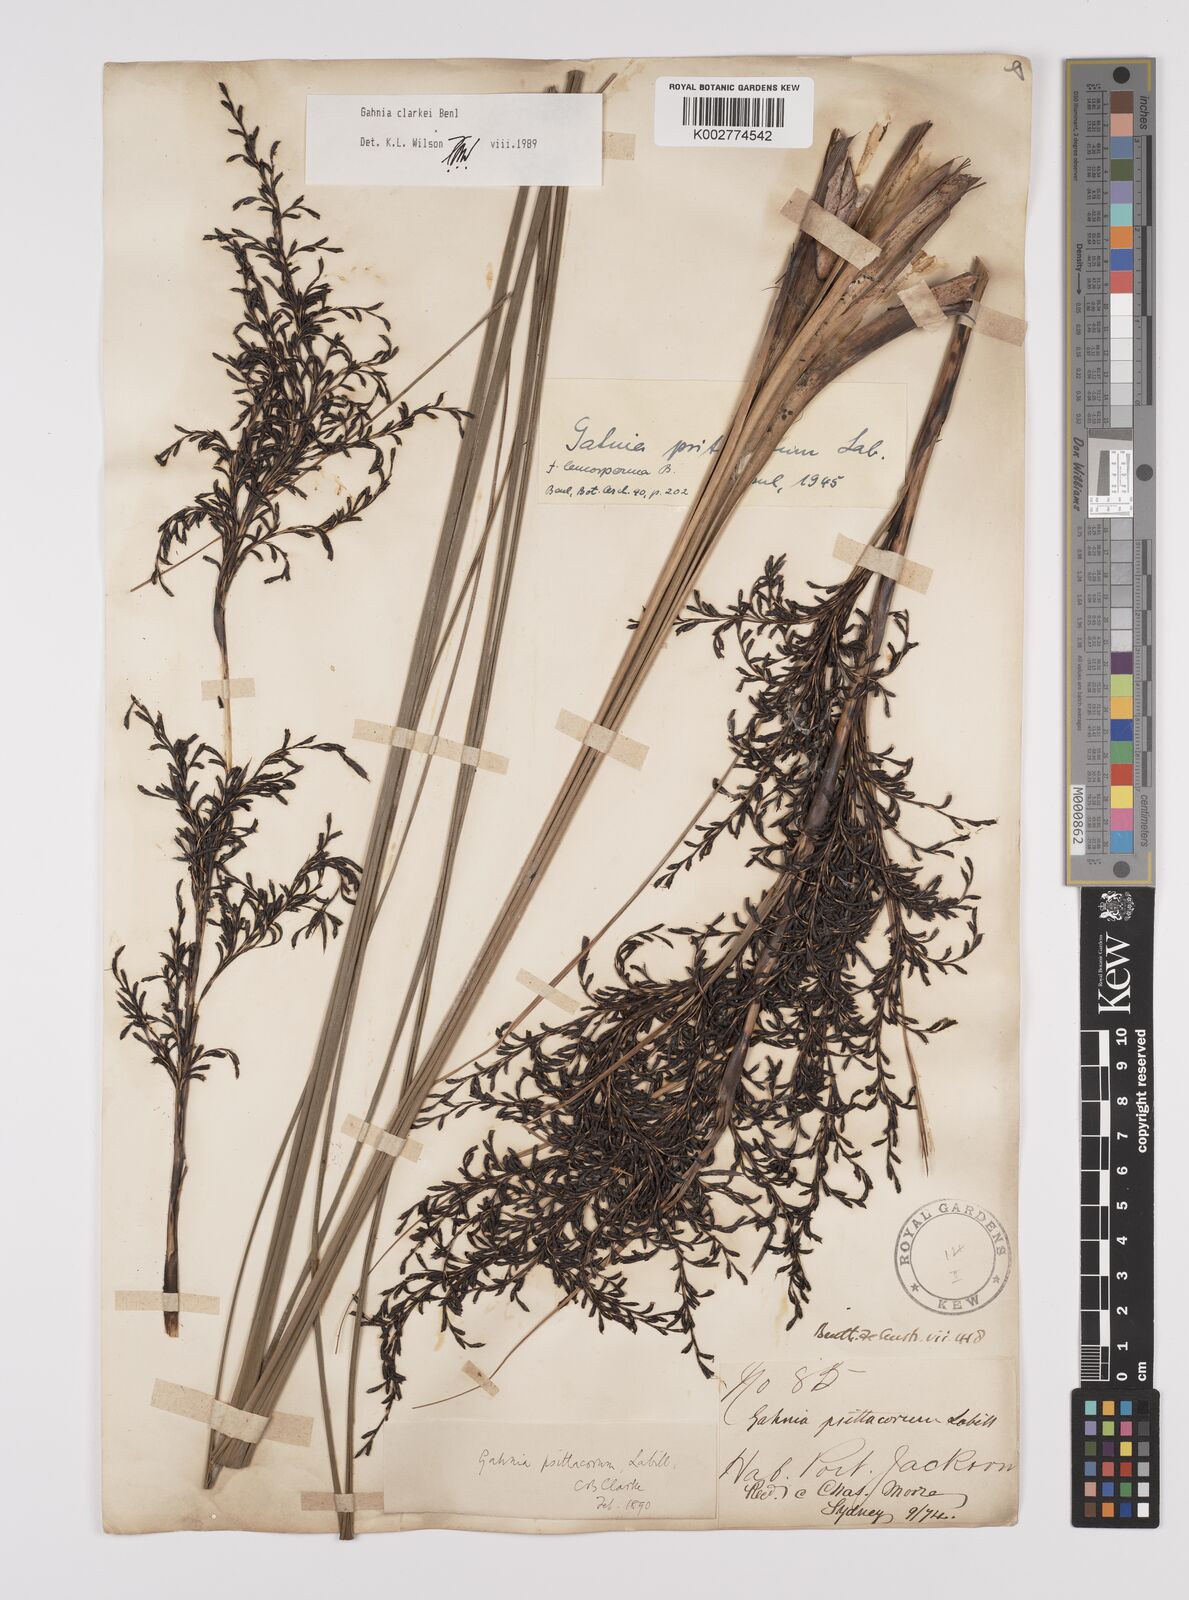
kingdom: Plantae
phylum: Tracheophyta
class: Liliopsida
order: Poales
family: Cyperaceae
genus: Gahnia
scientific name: Gahnia clarkei
